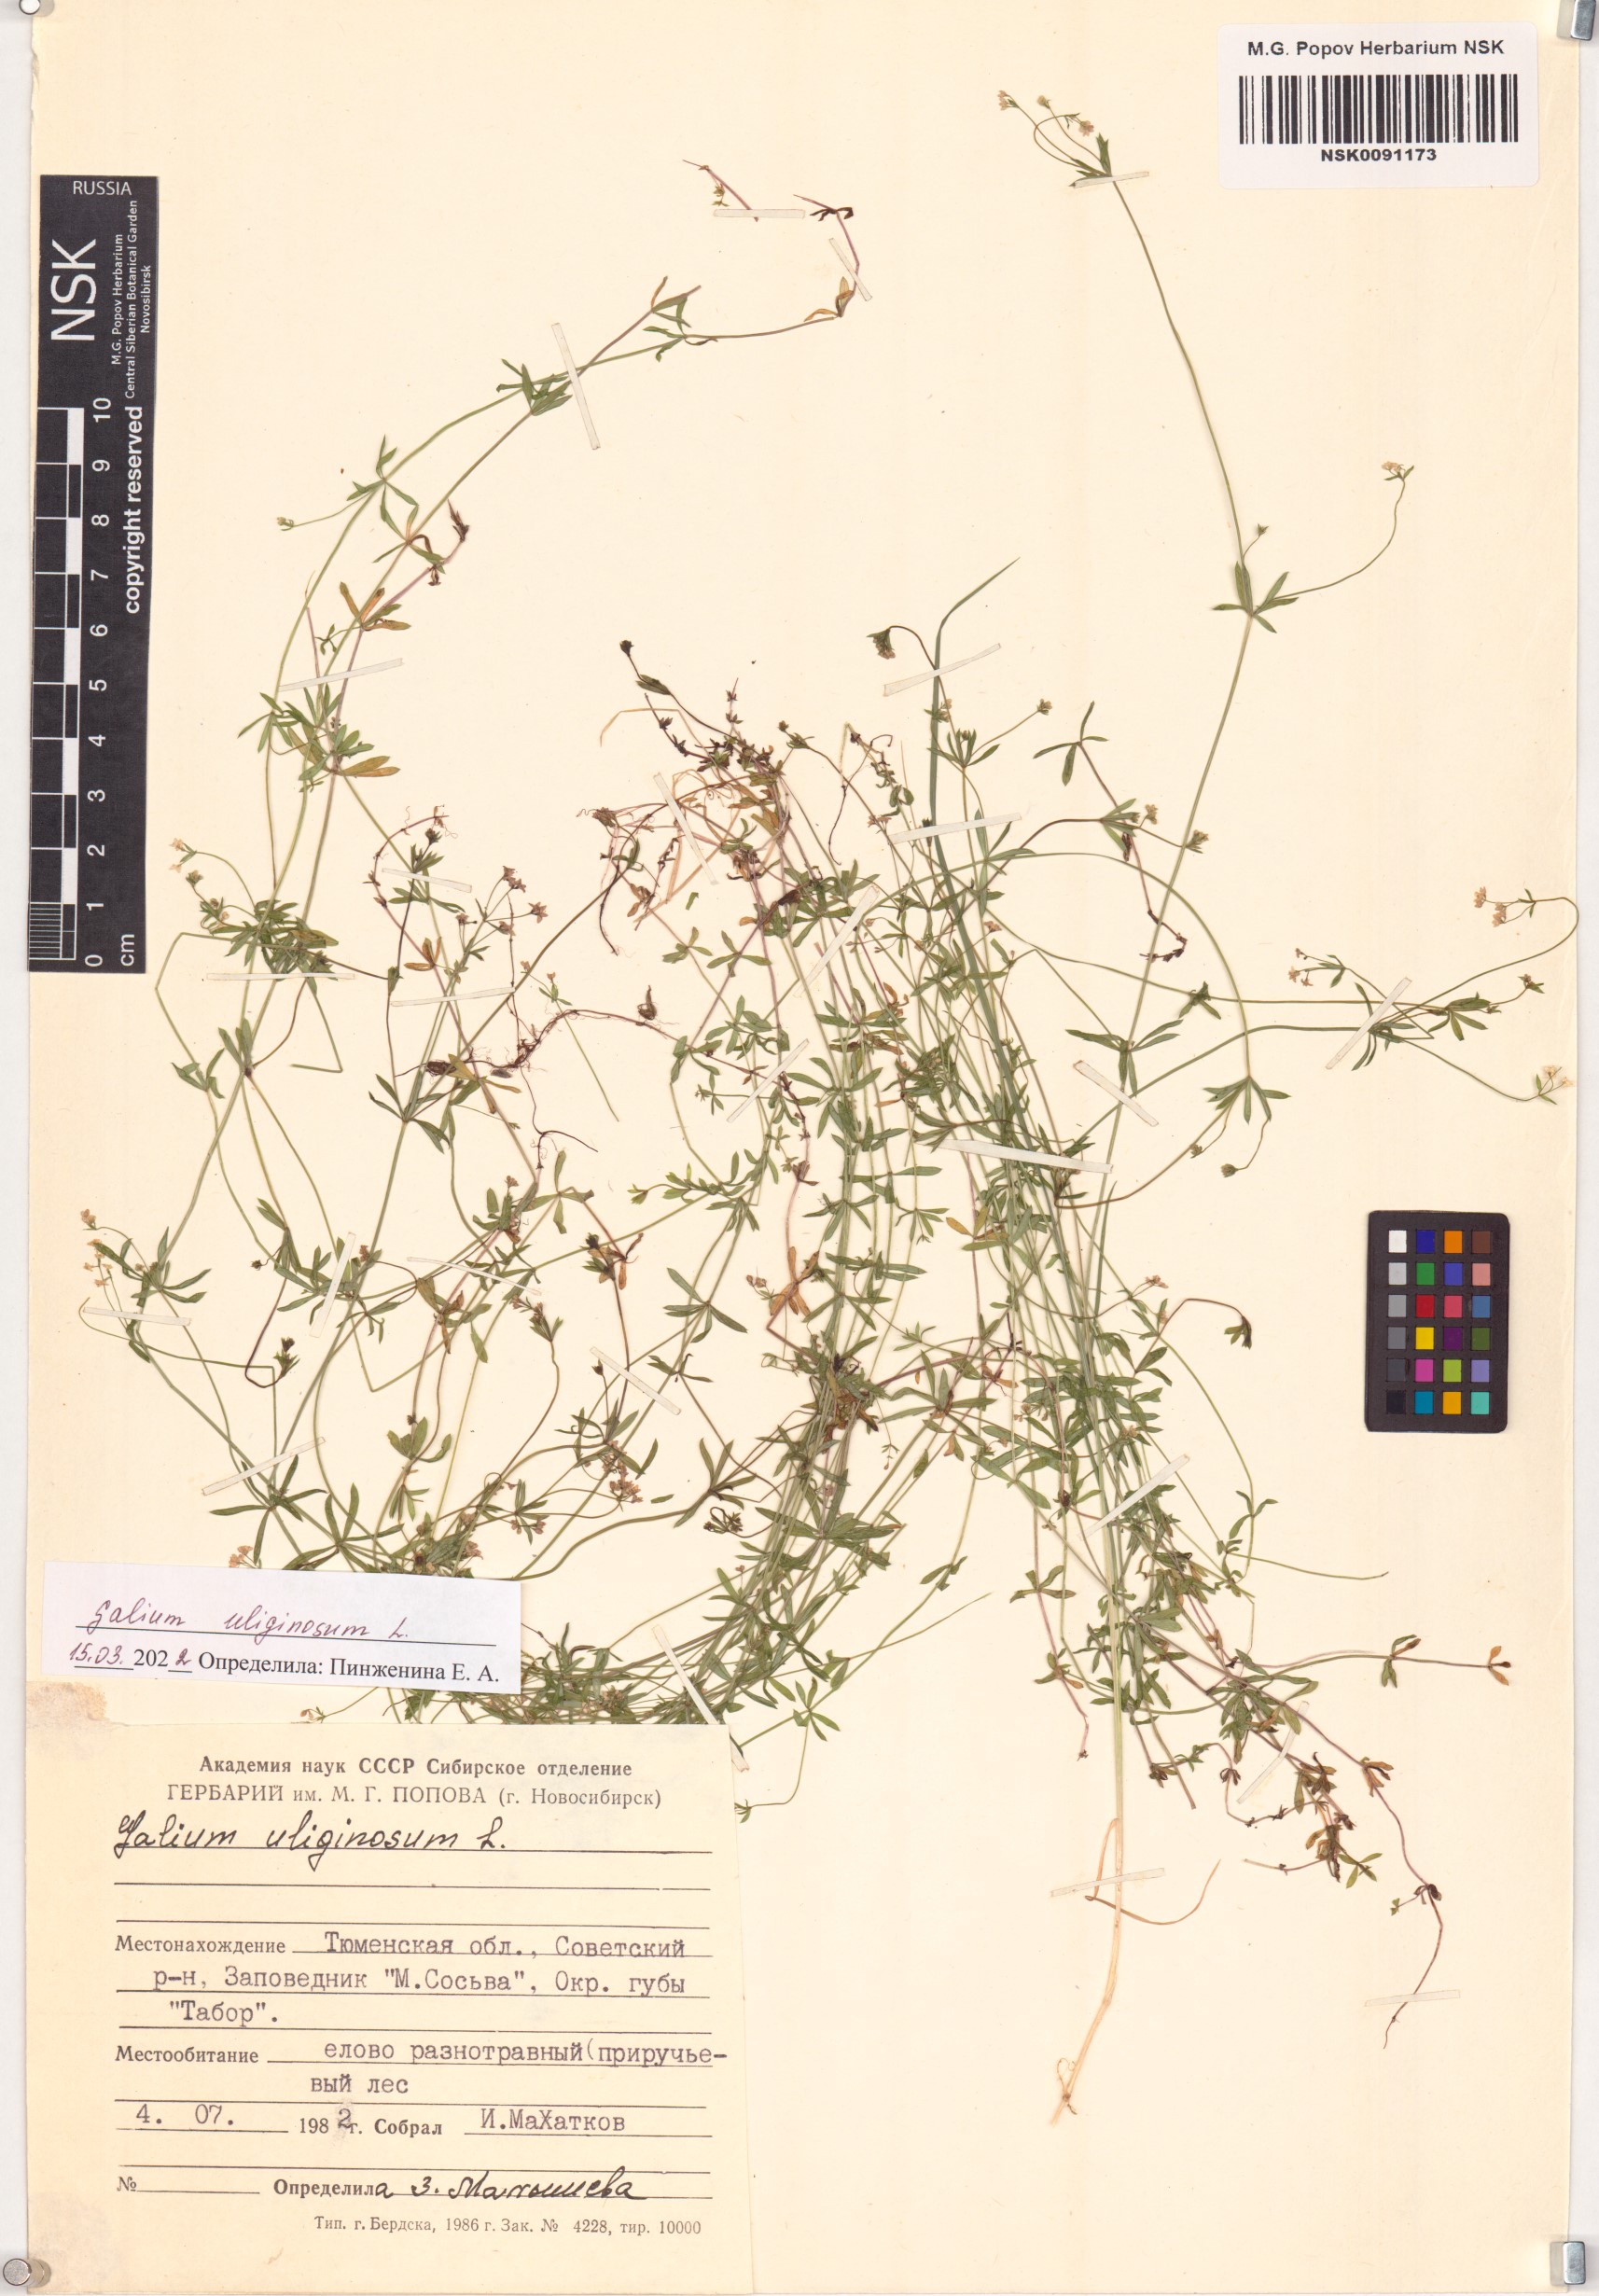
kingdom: Plantae
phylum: Tracheophyta
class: Magnoliopsida
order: Gentianales
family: Rubiaceae
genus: Galium
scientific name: Galium uliginosum
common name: Fen bedstraw
